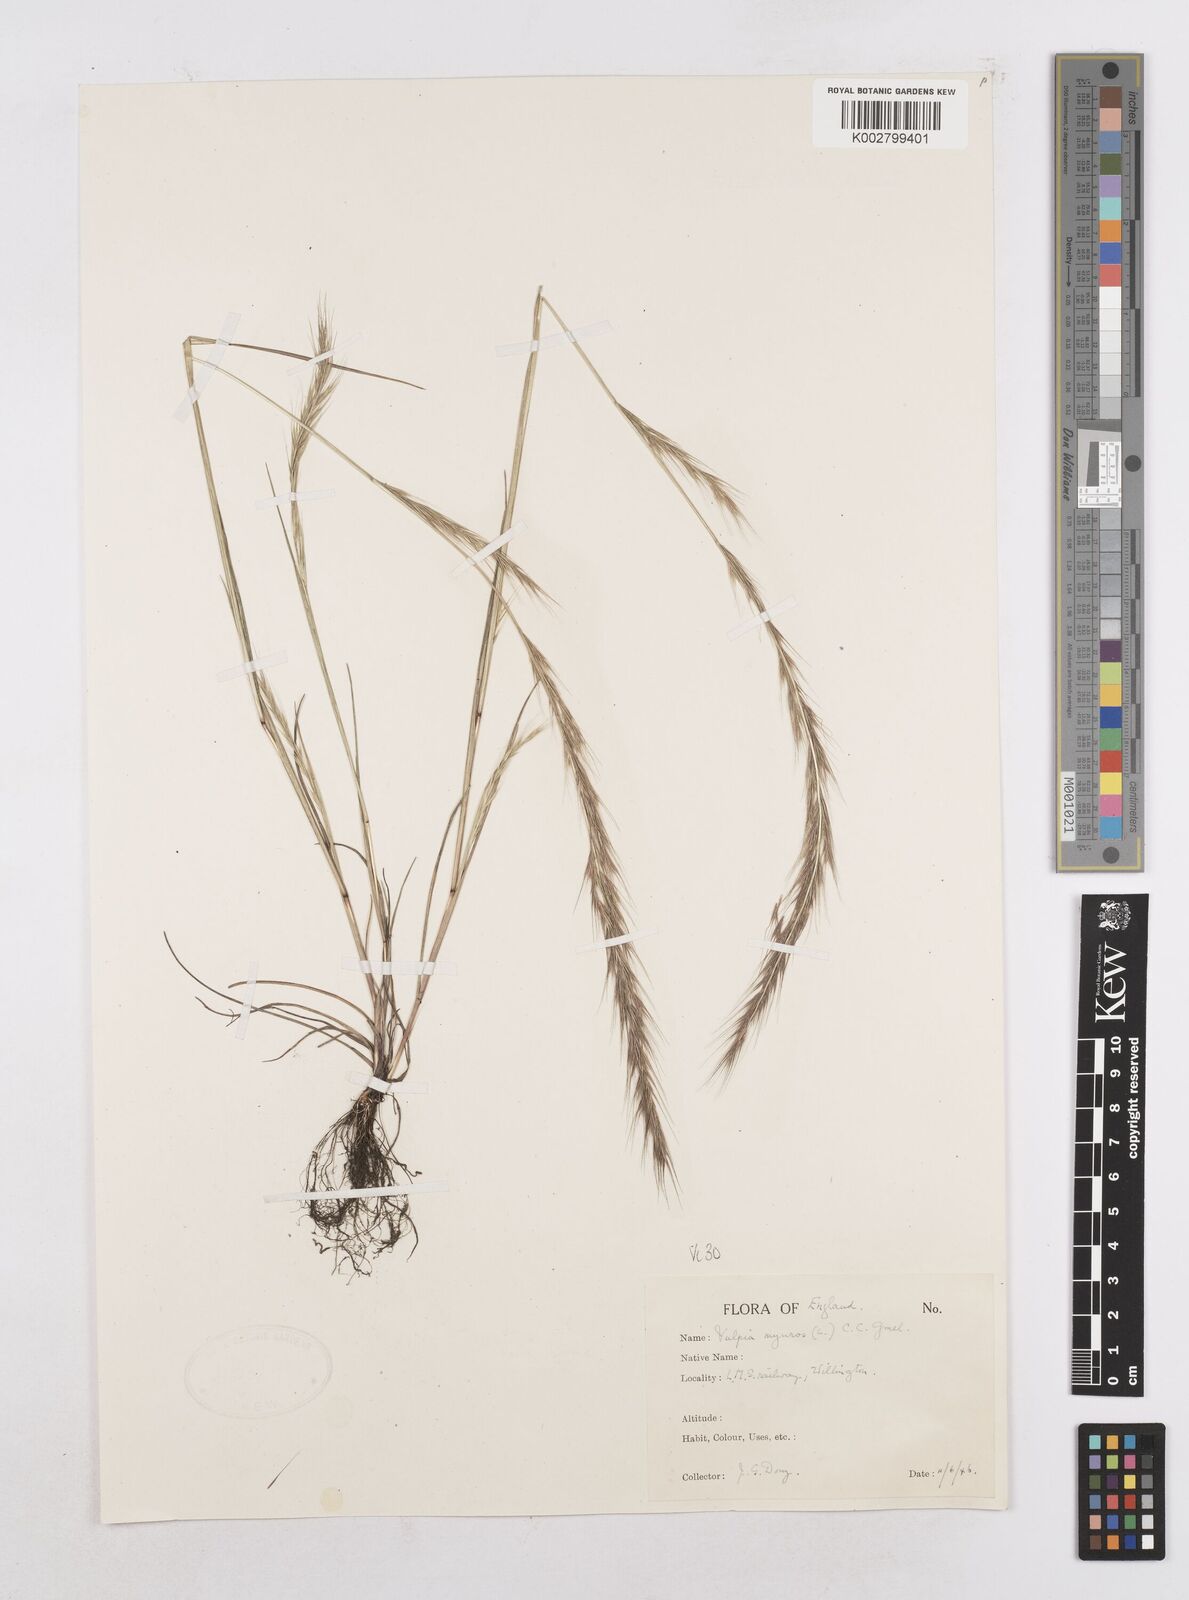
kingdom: Plantae
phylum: Tracheophyta
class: Liliopsida
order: Poales
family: Poaceae
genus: Festuca
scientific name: Festuca myuros
